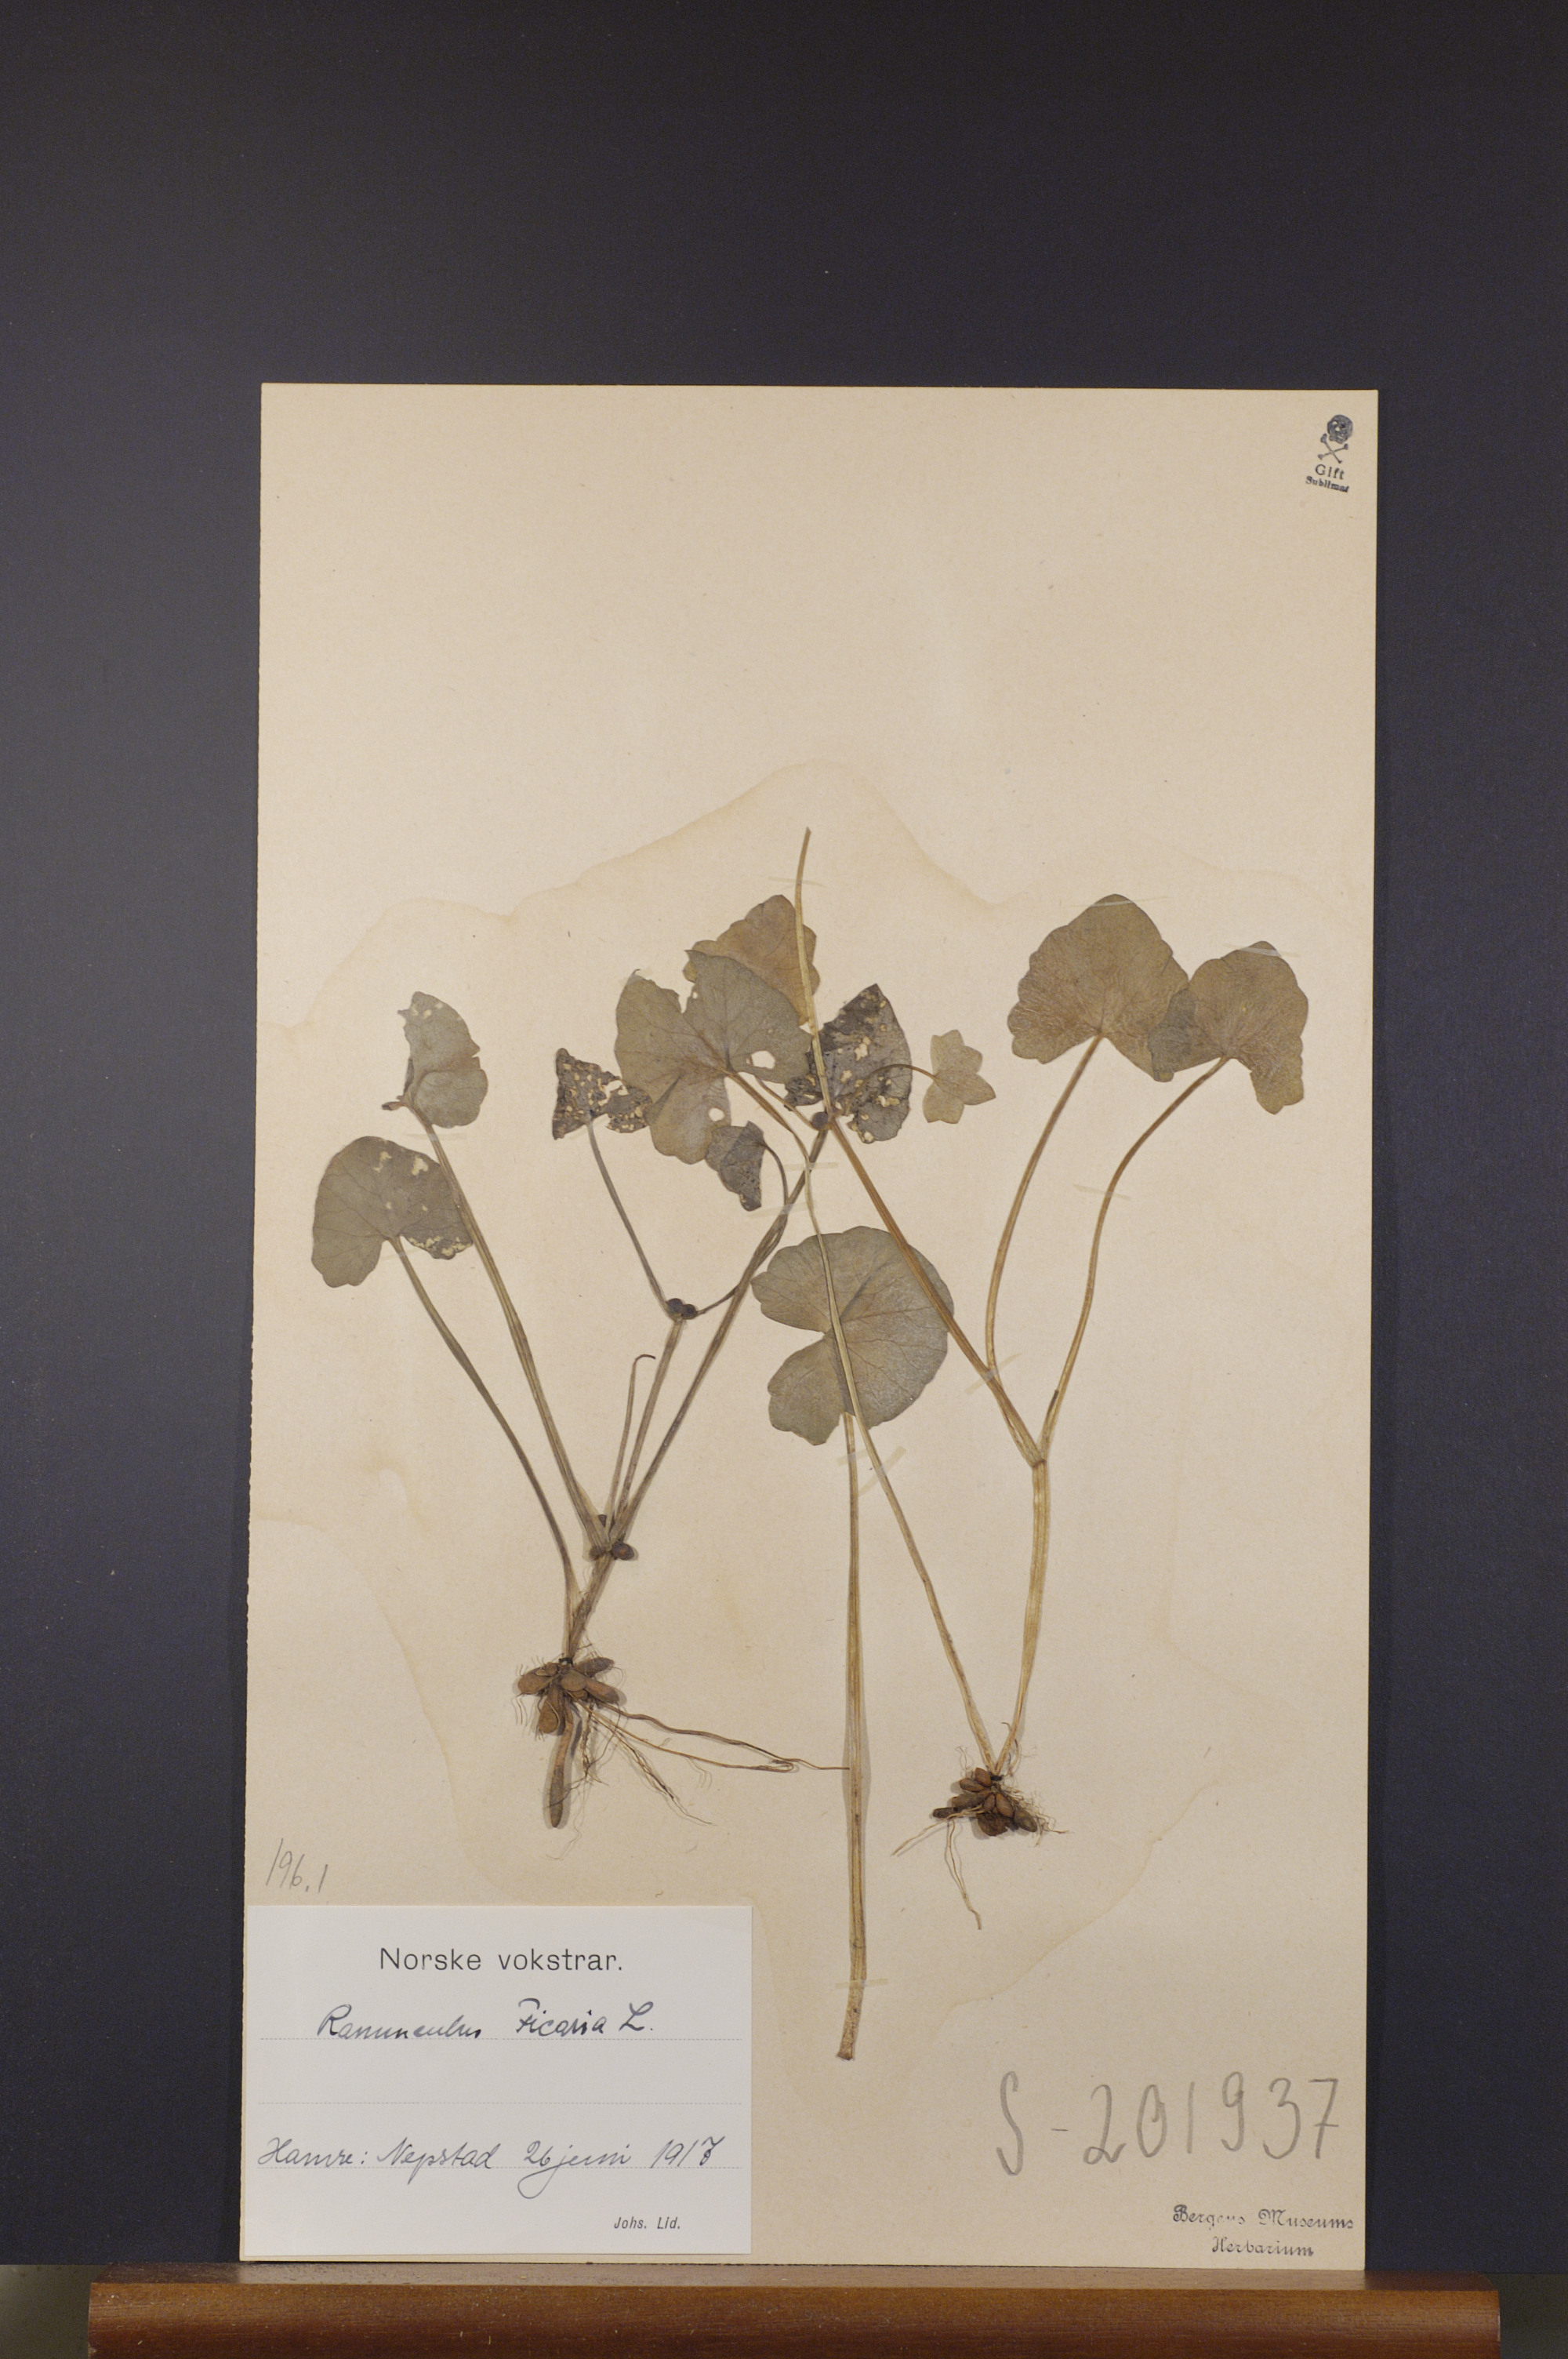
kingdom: Plantae
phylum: Tracheophyta
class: Magnoliopsida
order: Ranunculales
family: Ranunculaceae
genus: Ficaria
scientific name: Ficaria verna
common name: Lesser celandine
